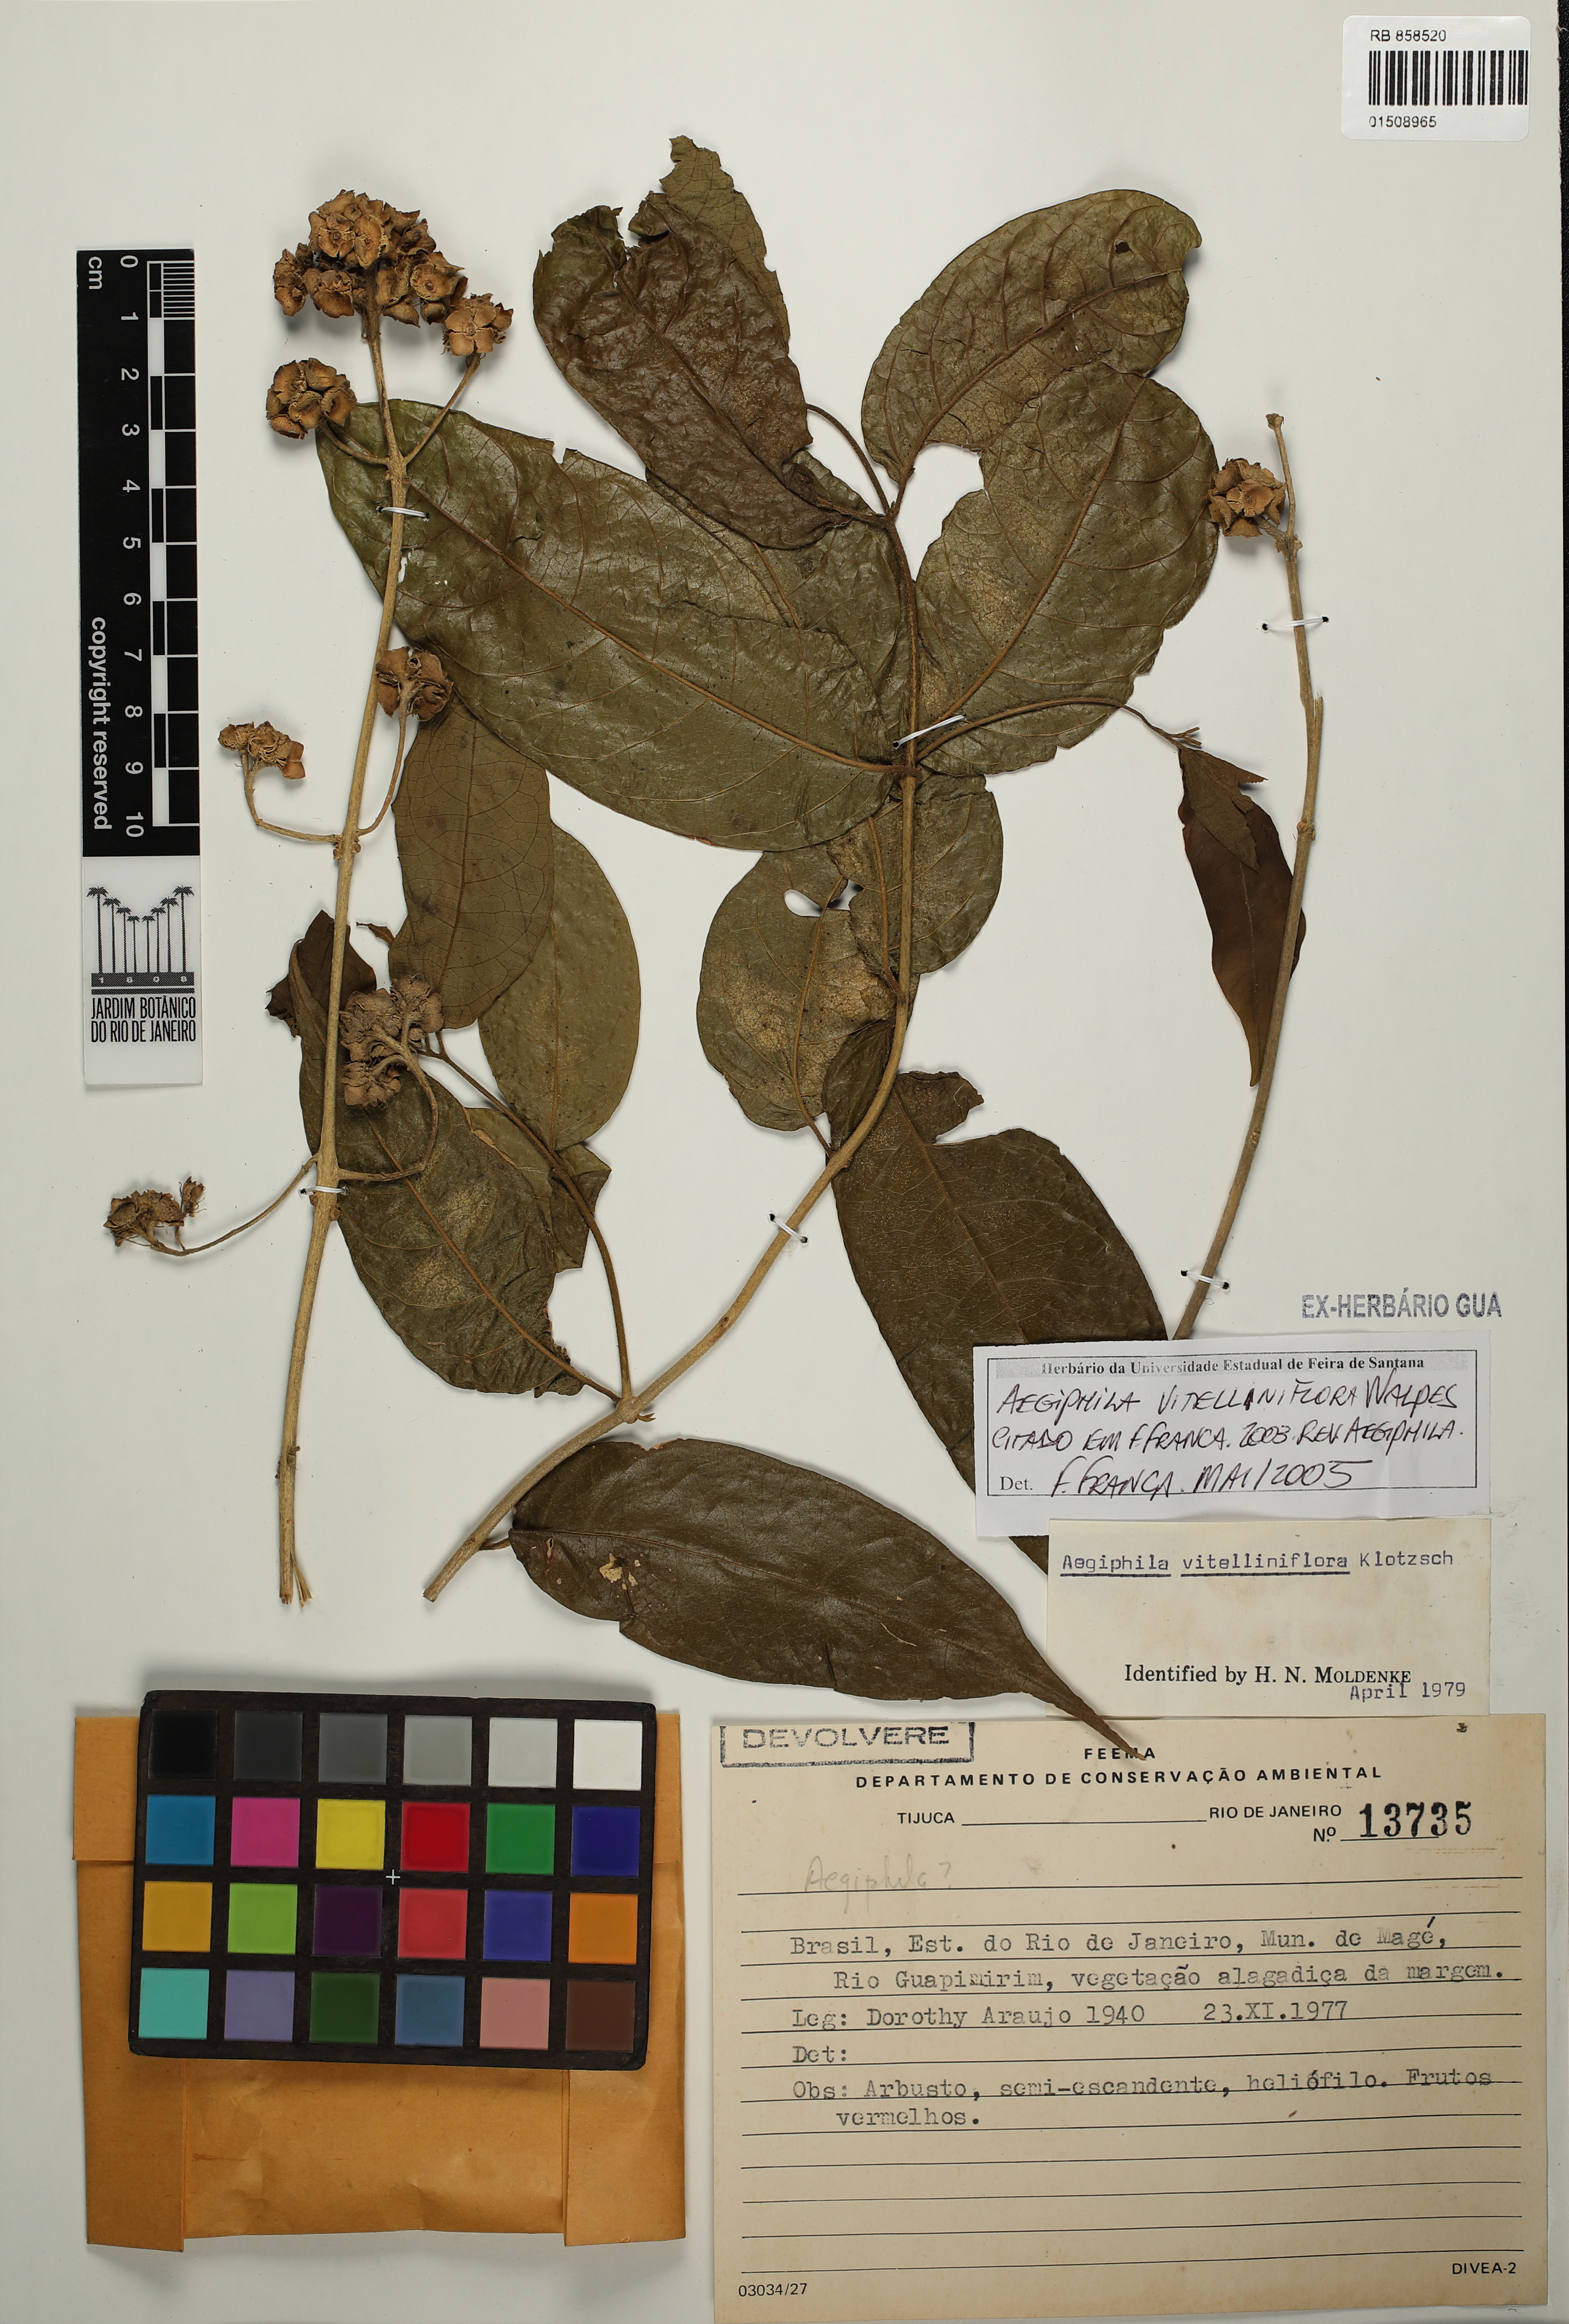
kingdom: Plantae
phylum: Tracheophyta
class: Magnoliopsida
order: Lamiales
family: Lamiaceae
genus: Aegiphila
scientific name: Aegiphila vitelliniflora
